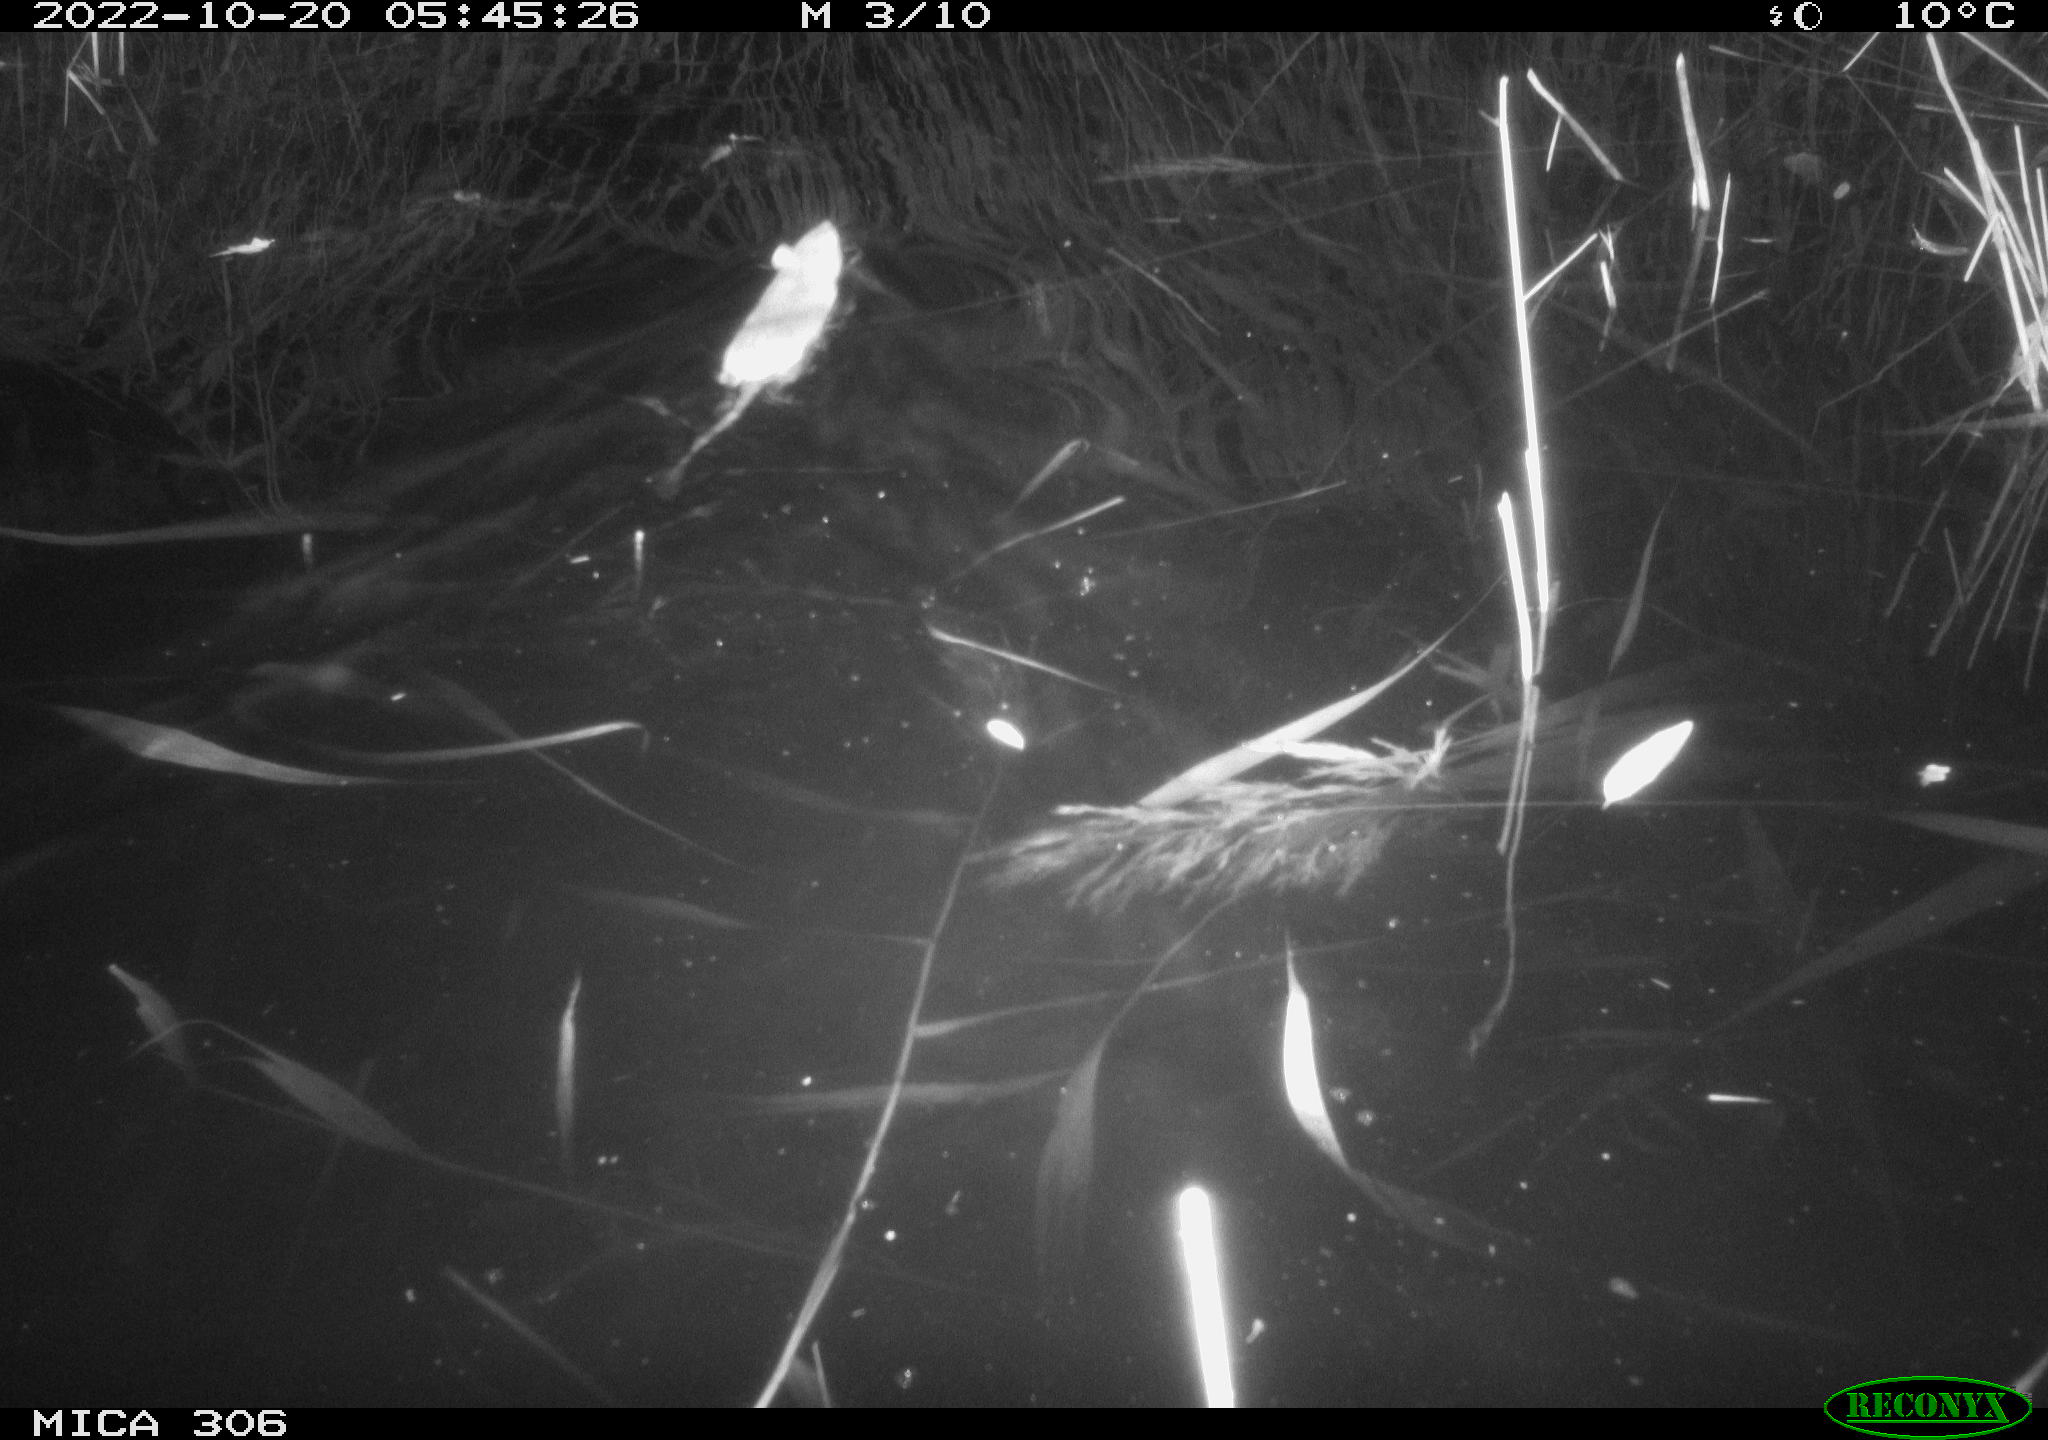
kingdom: Animalia
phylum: Chordata
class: Mammalia
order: Rodentia
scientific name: Rodentia
